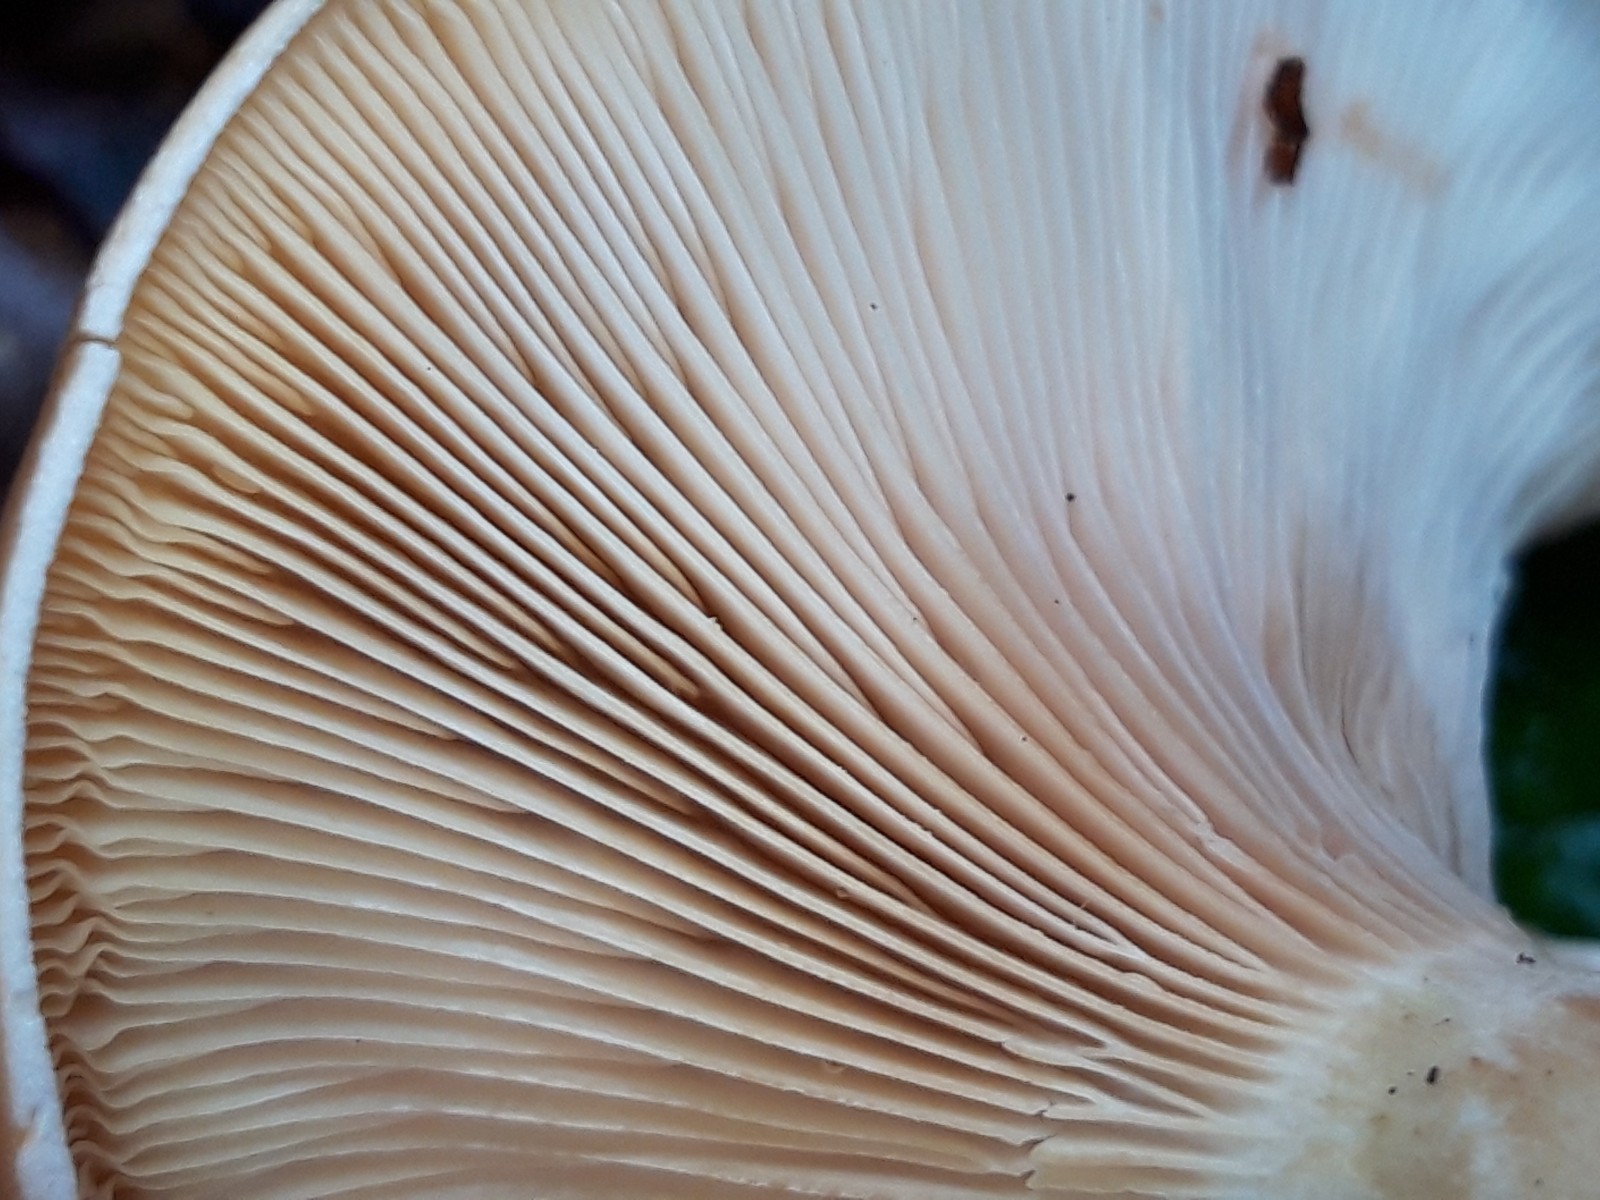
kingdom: Fungi
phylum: Basidiomycota
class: Agaricomycetes
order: Agaricales
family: Tricholomataceae
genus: Paralepista
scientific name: Paralepista gilva
